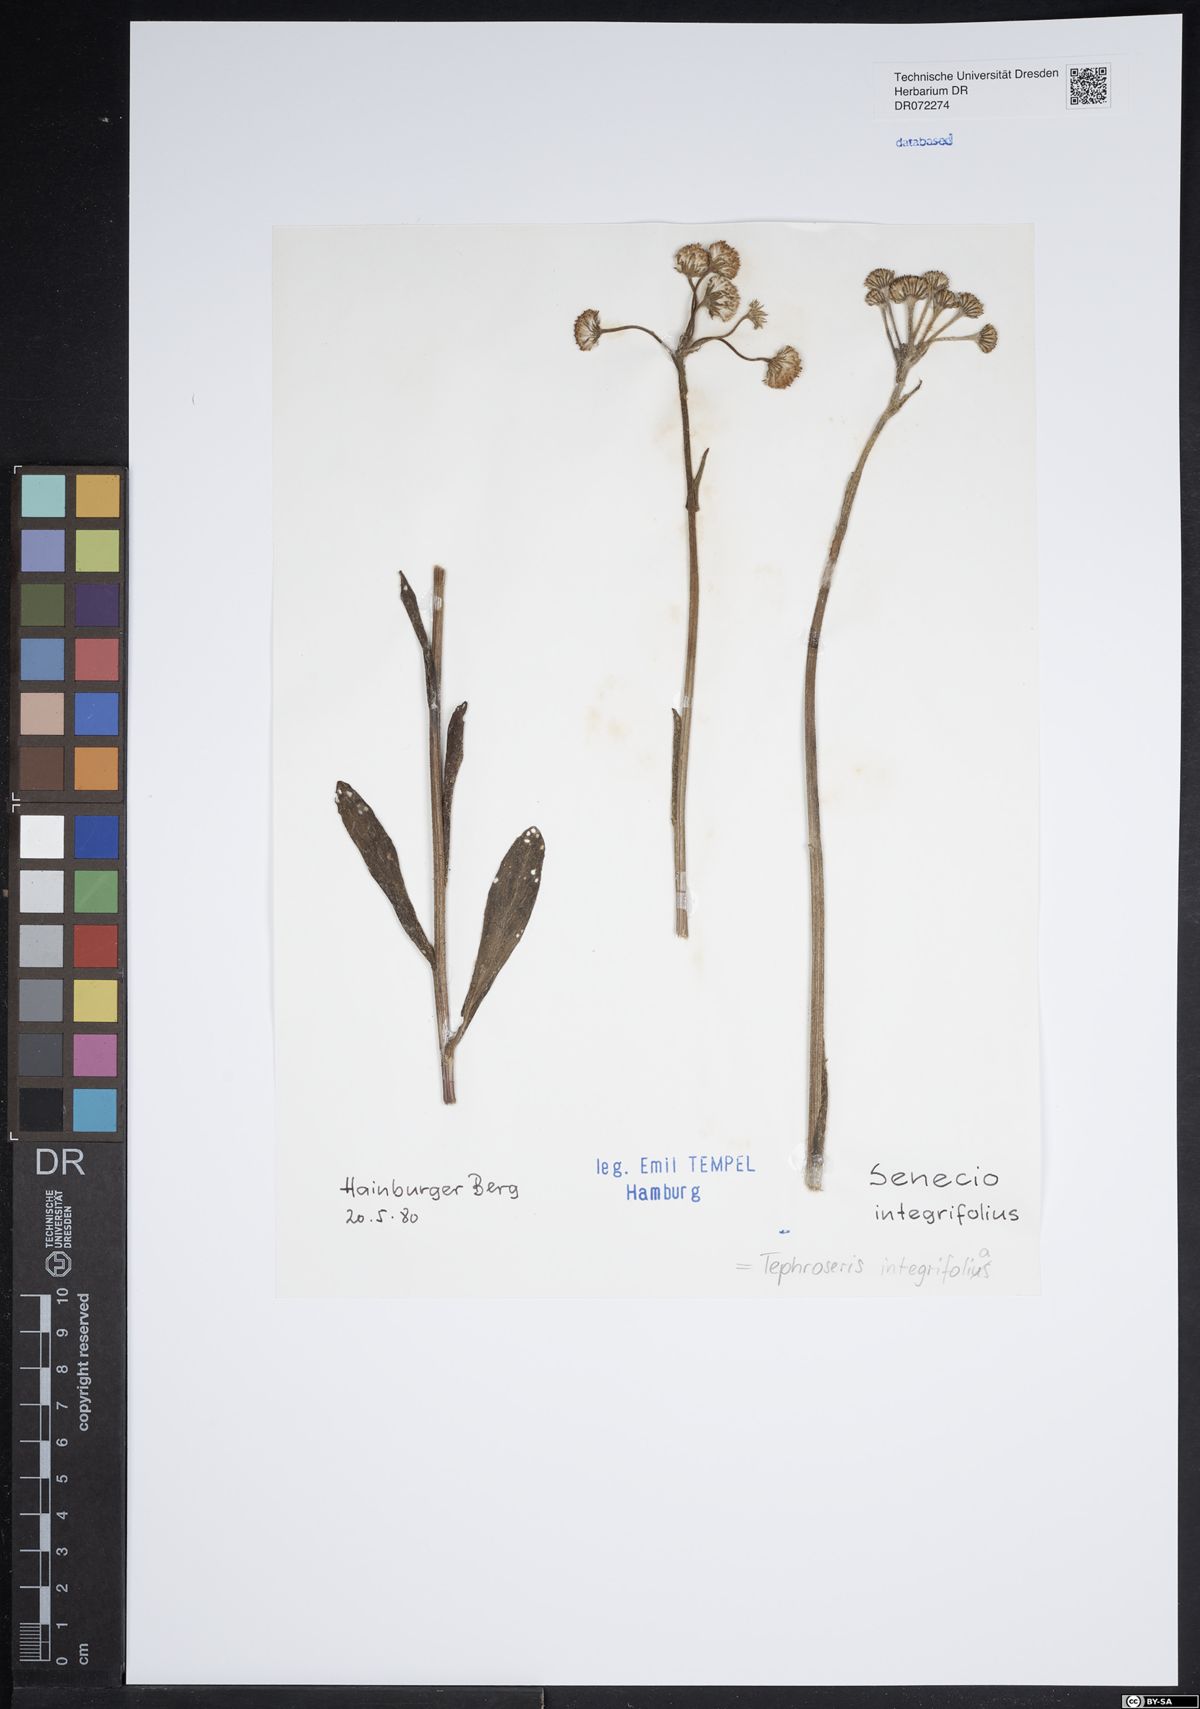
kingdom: Plantae
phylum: Tracheophyta
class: Magnoliopsida
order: Asterales
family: Asteraceae
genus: Tephroseris
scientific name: Tephroseris integrifolia
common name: Field fleawort
